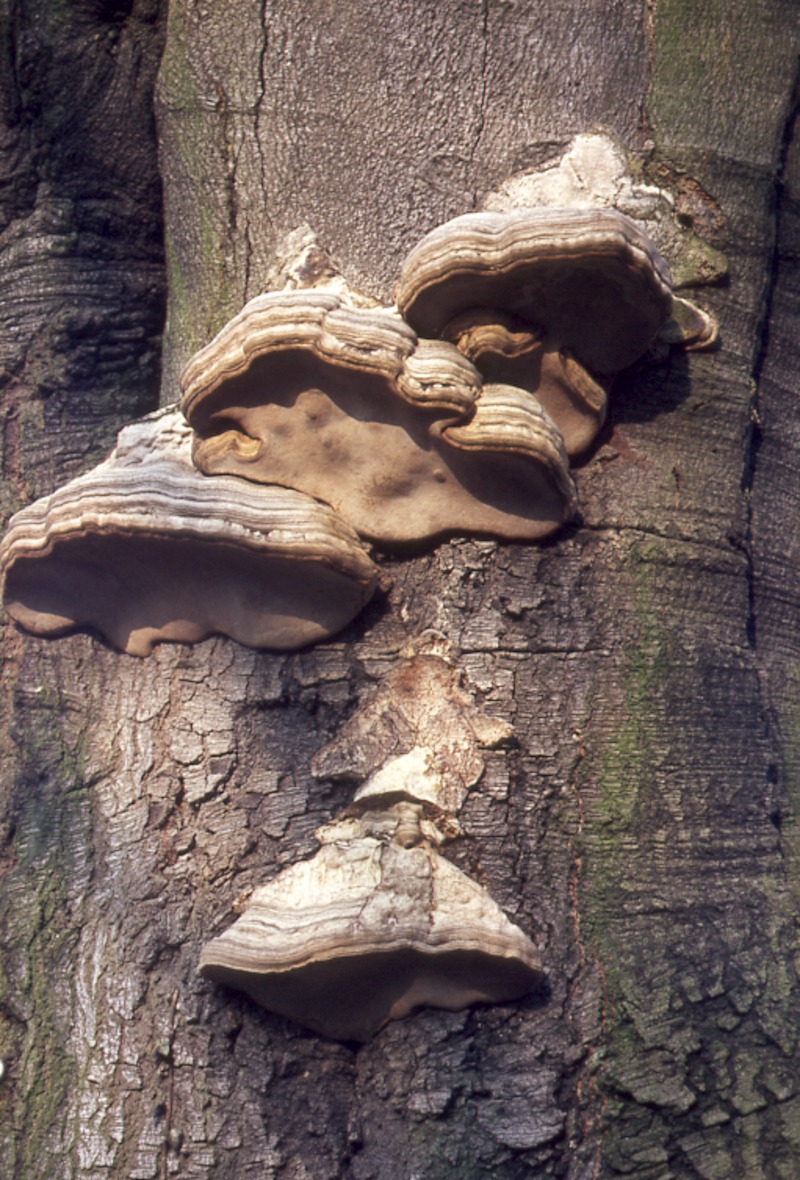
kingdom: Fungi
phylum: Basidiomycota
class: Agaricomycetes
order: Polyporales
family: Polyporaceae
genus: Fomes
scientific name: Fomes fomentarius
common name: Hoof fungus
